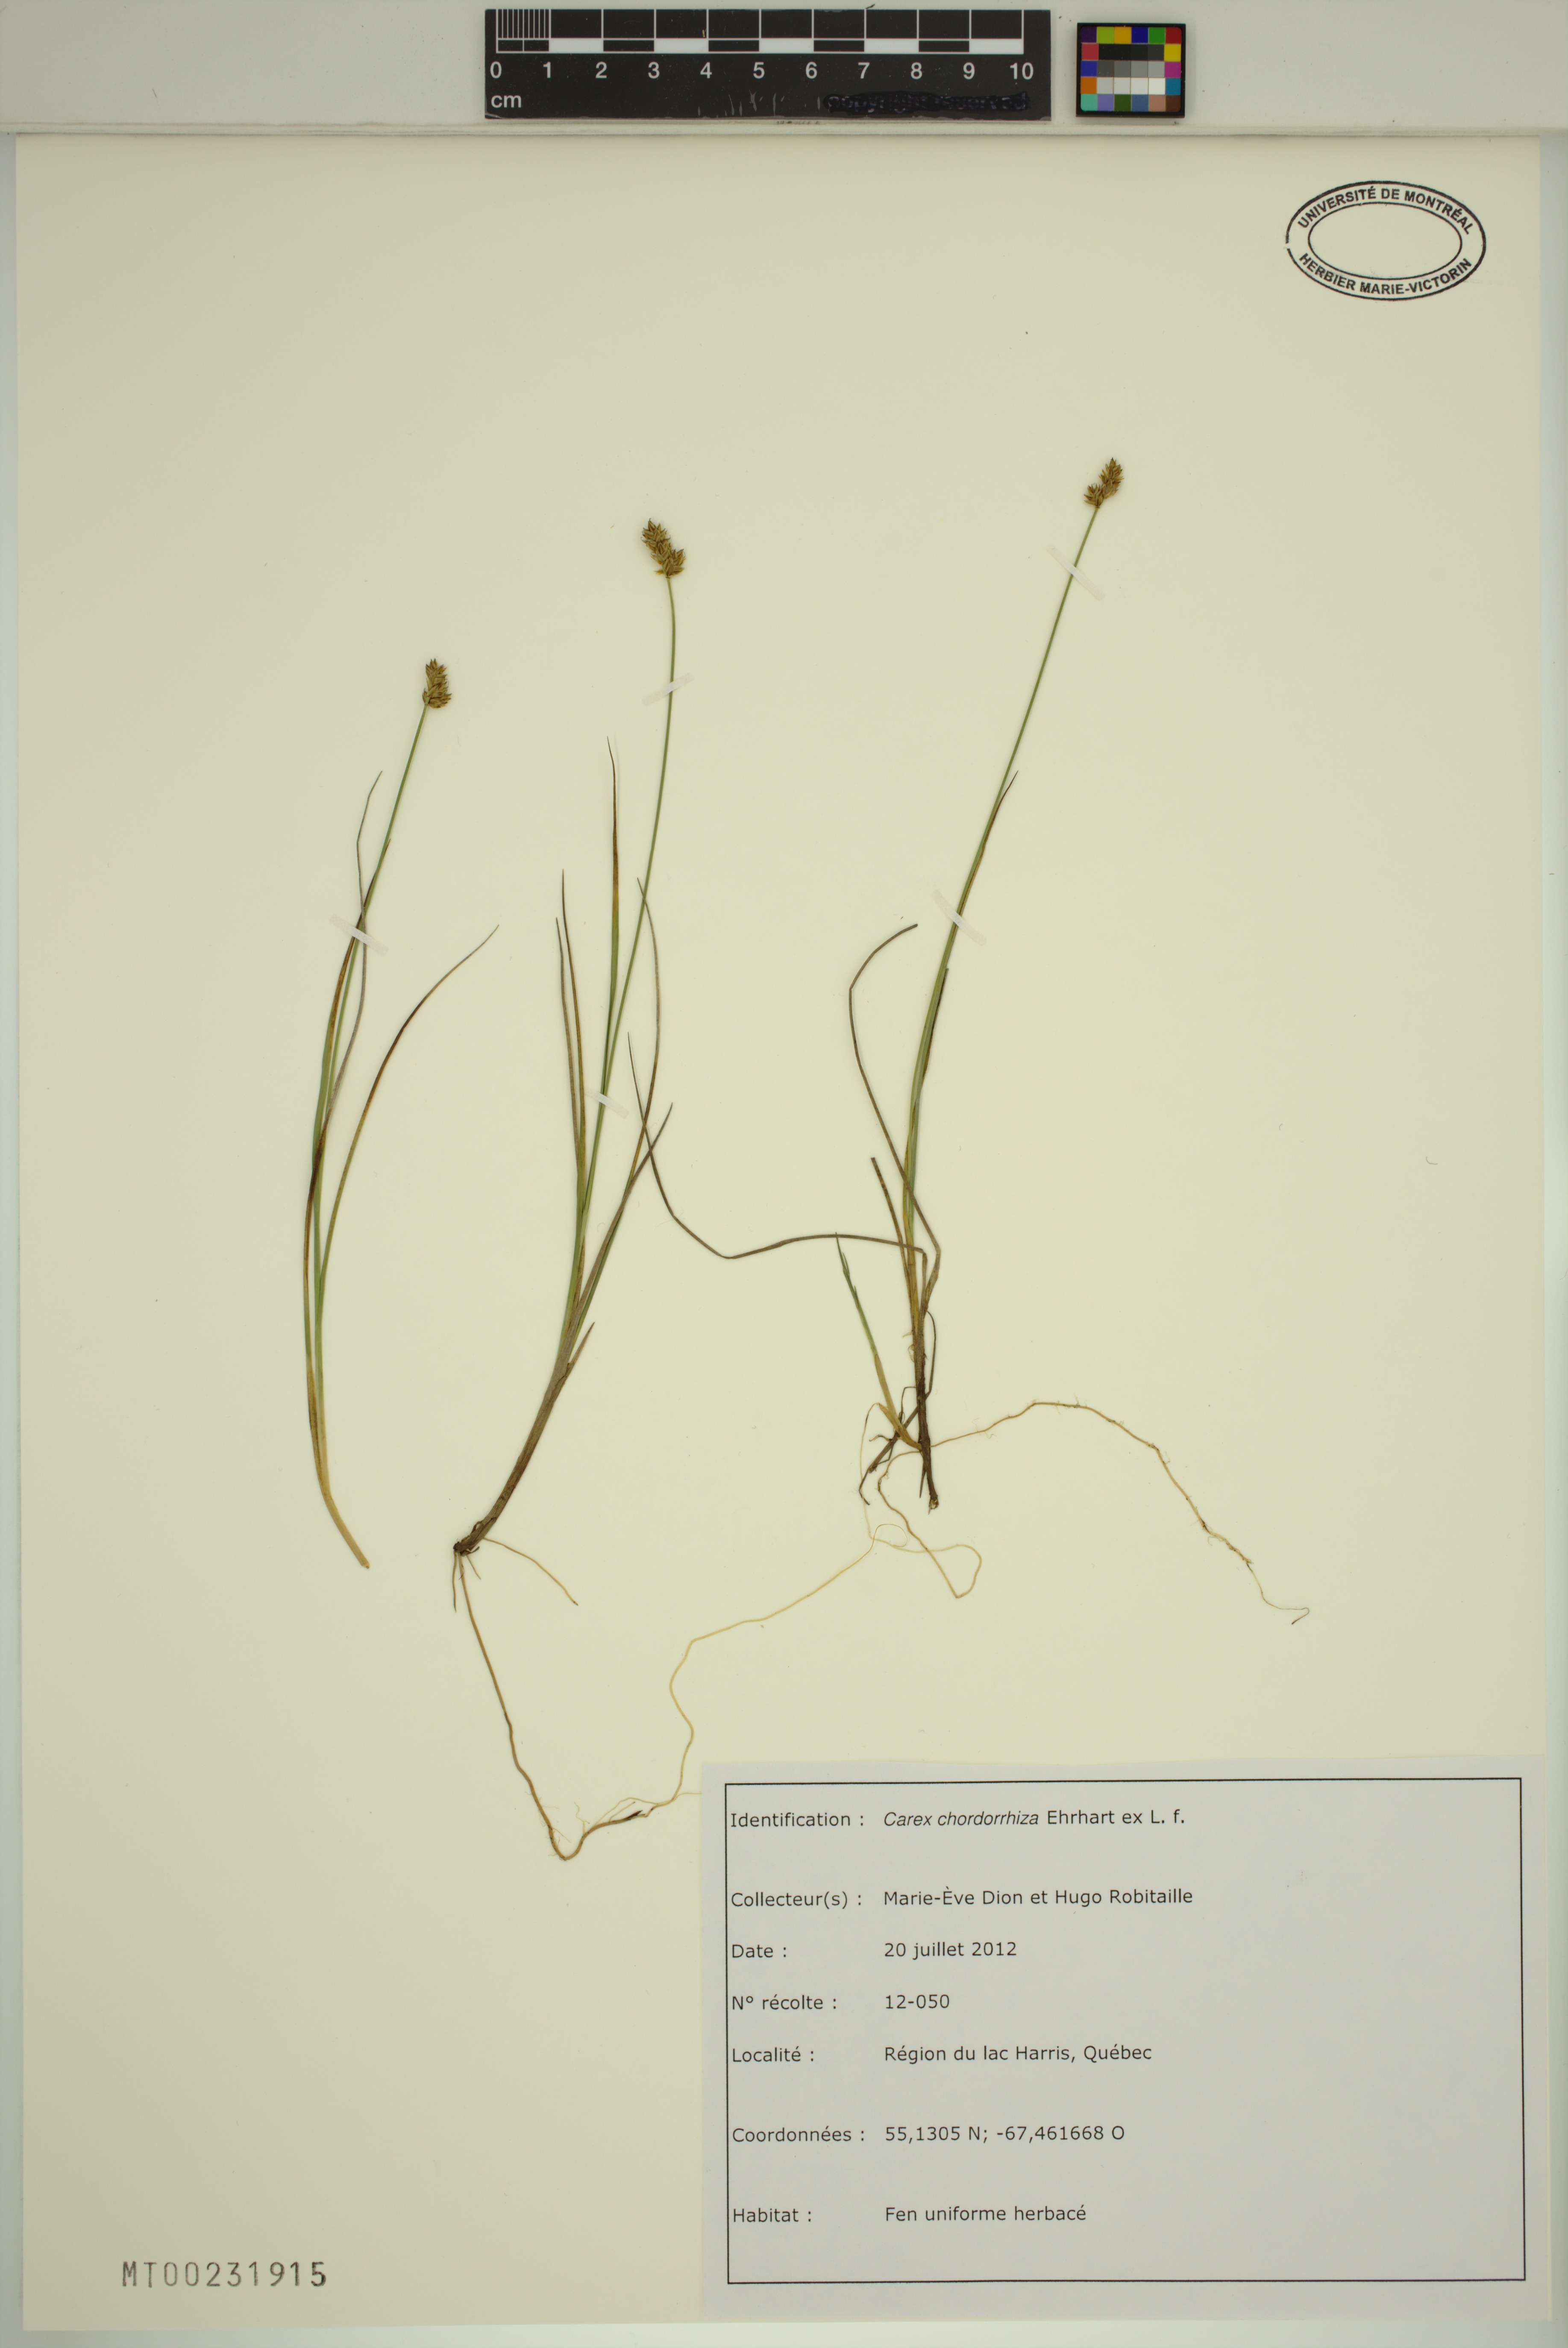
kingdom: Plantae
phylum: Tracheophyta
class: Liliopsida
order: Poales
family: Cyperaceae
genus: Carex
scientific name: Carex chordorrhiza
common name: String sedge
